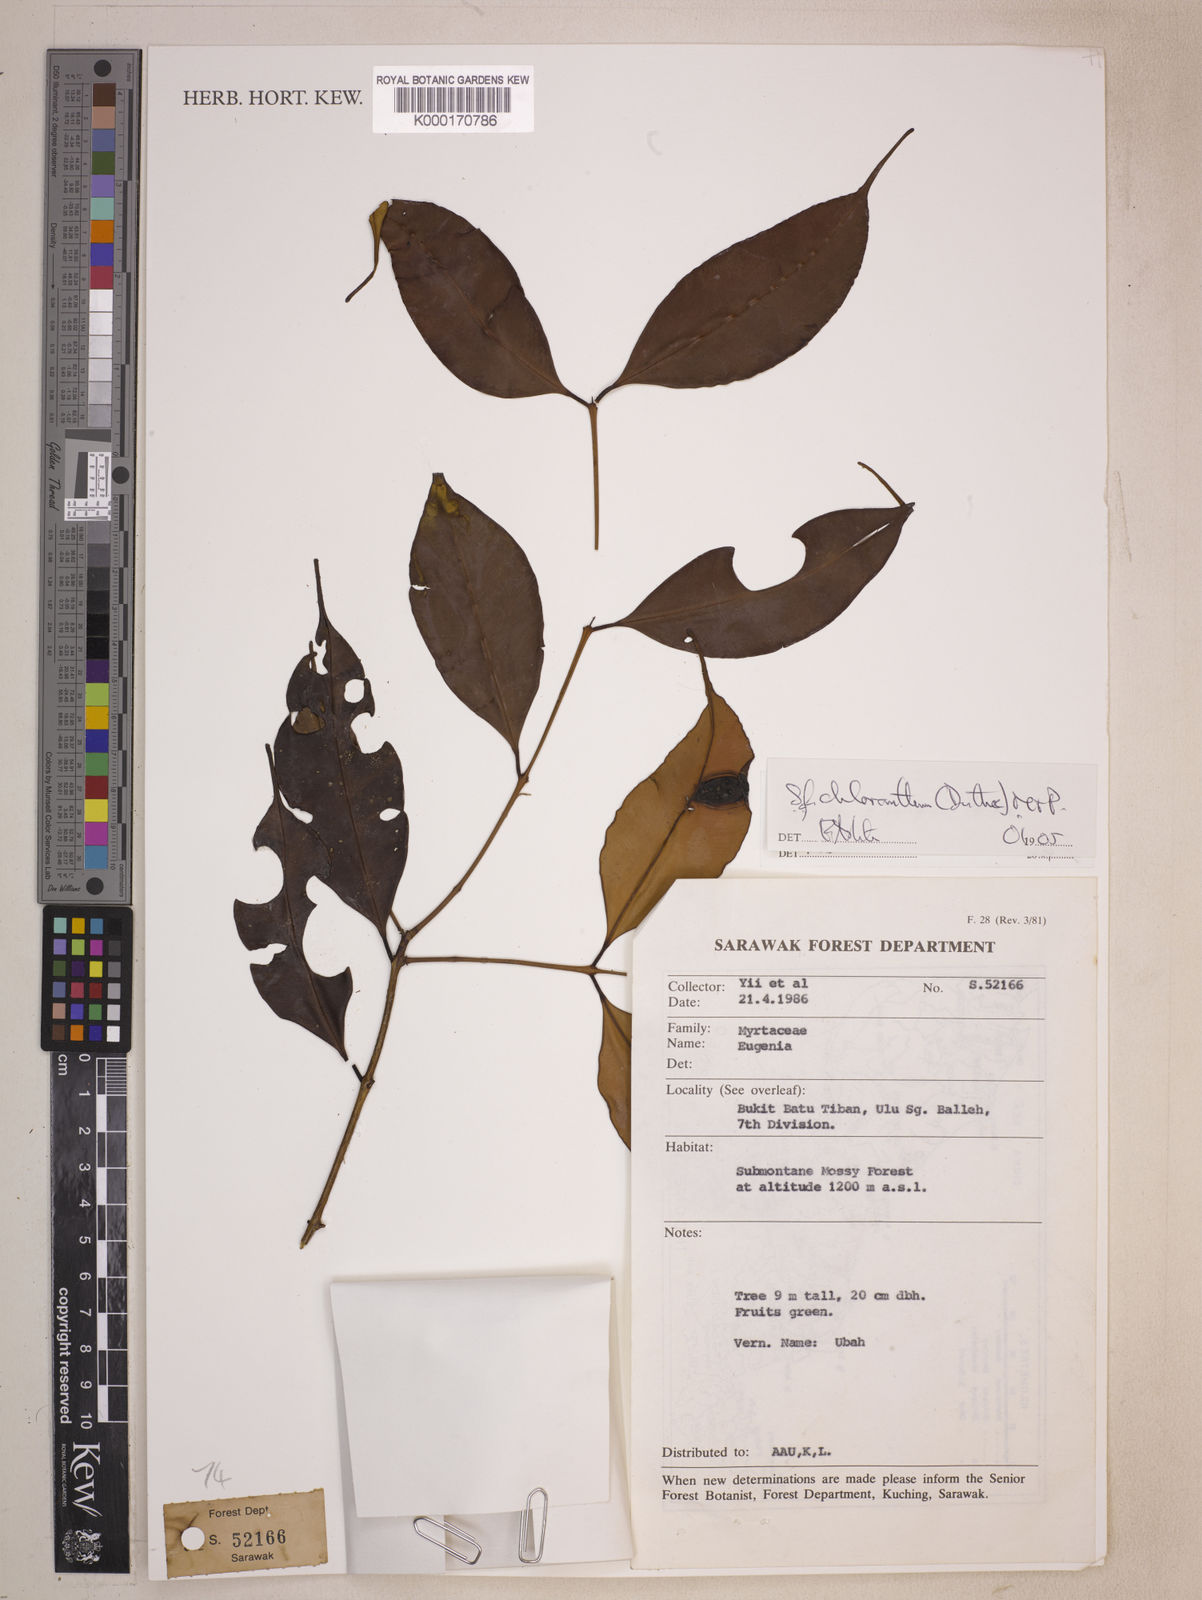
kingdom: Plantae
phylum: Tracheophyta
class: Magnoliopsida
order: Myrtales
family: Myrtaceae
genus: Syzygium
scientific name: Syzygium pyrifolium
